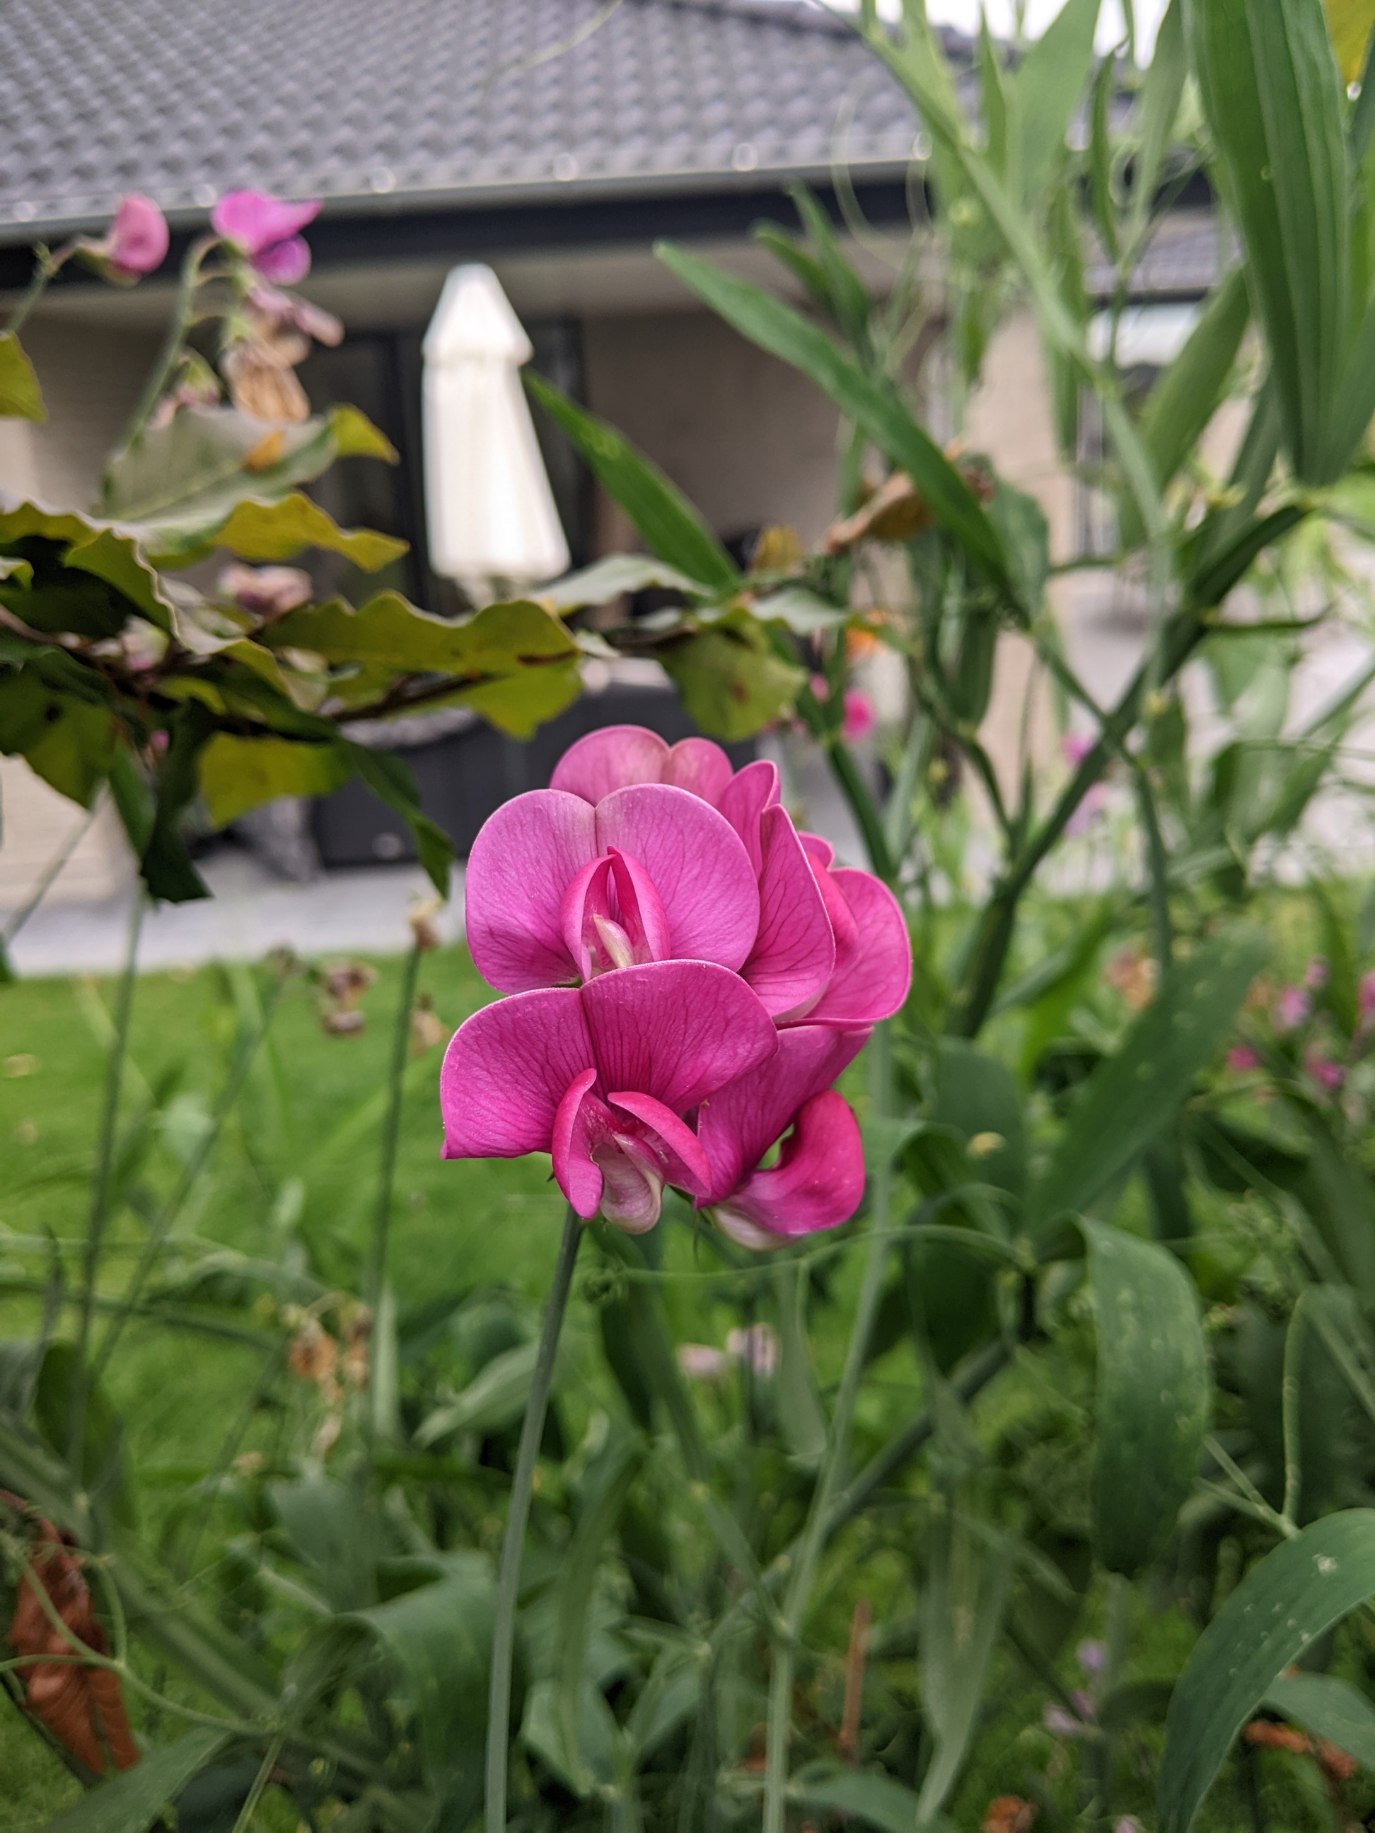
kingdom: Plantae
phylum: Tracheophyta
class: Magnoliopsida
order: Fabales
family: Fabaceae
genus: Lathyrus
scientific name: Lathyrus latifolius
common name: Flerårig ærteblomst
